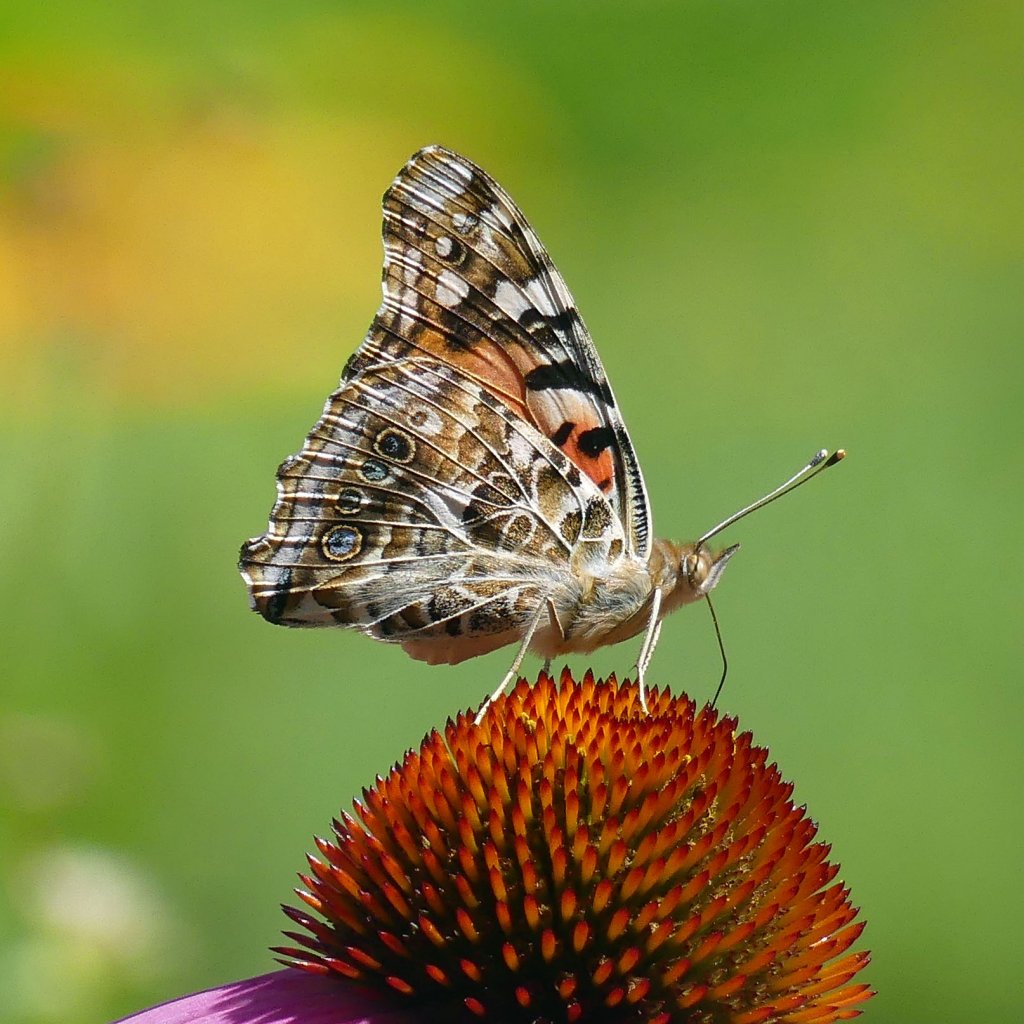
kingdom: Animalia
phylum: Arthropoda
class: Insecta
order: Lepidoptera
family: Nymphalidae
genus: Vanessa
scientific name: Vanessa cardui
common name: Painted Lady
